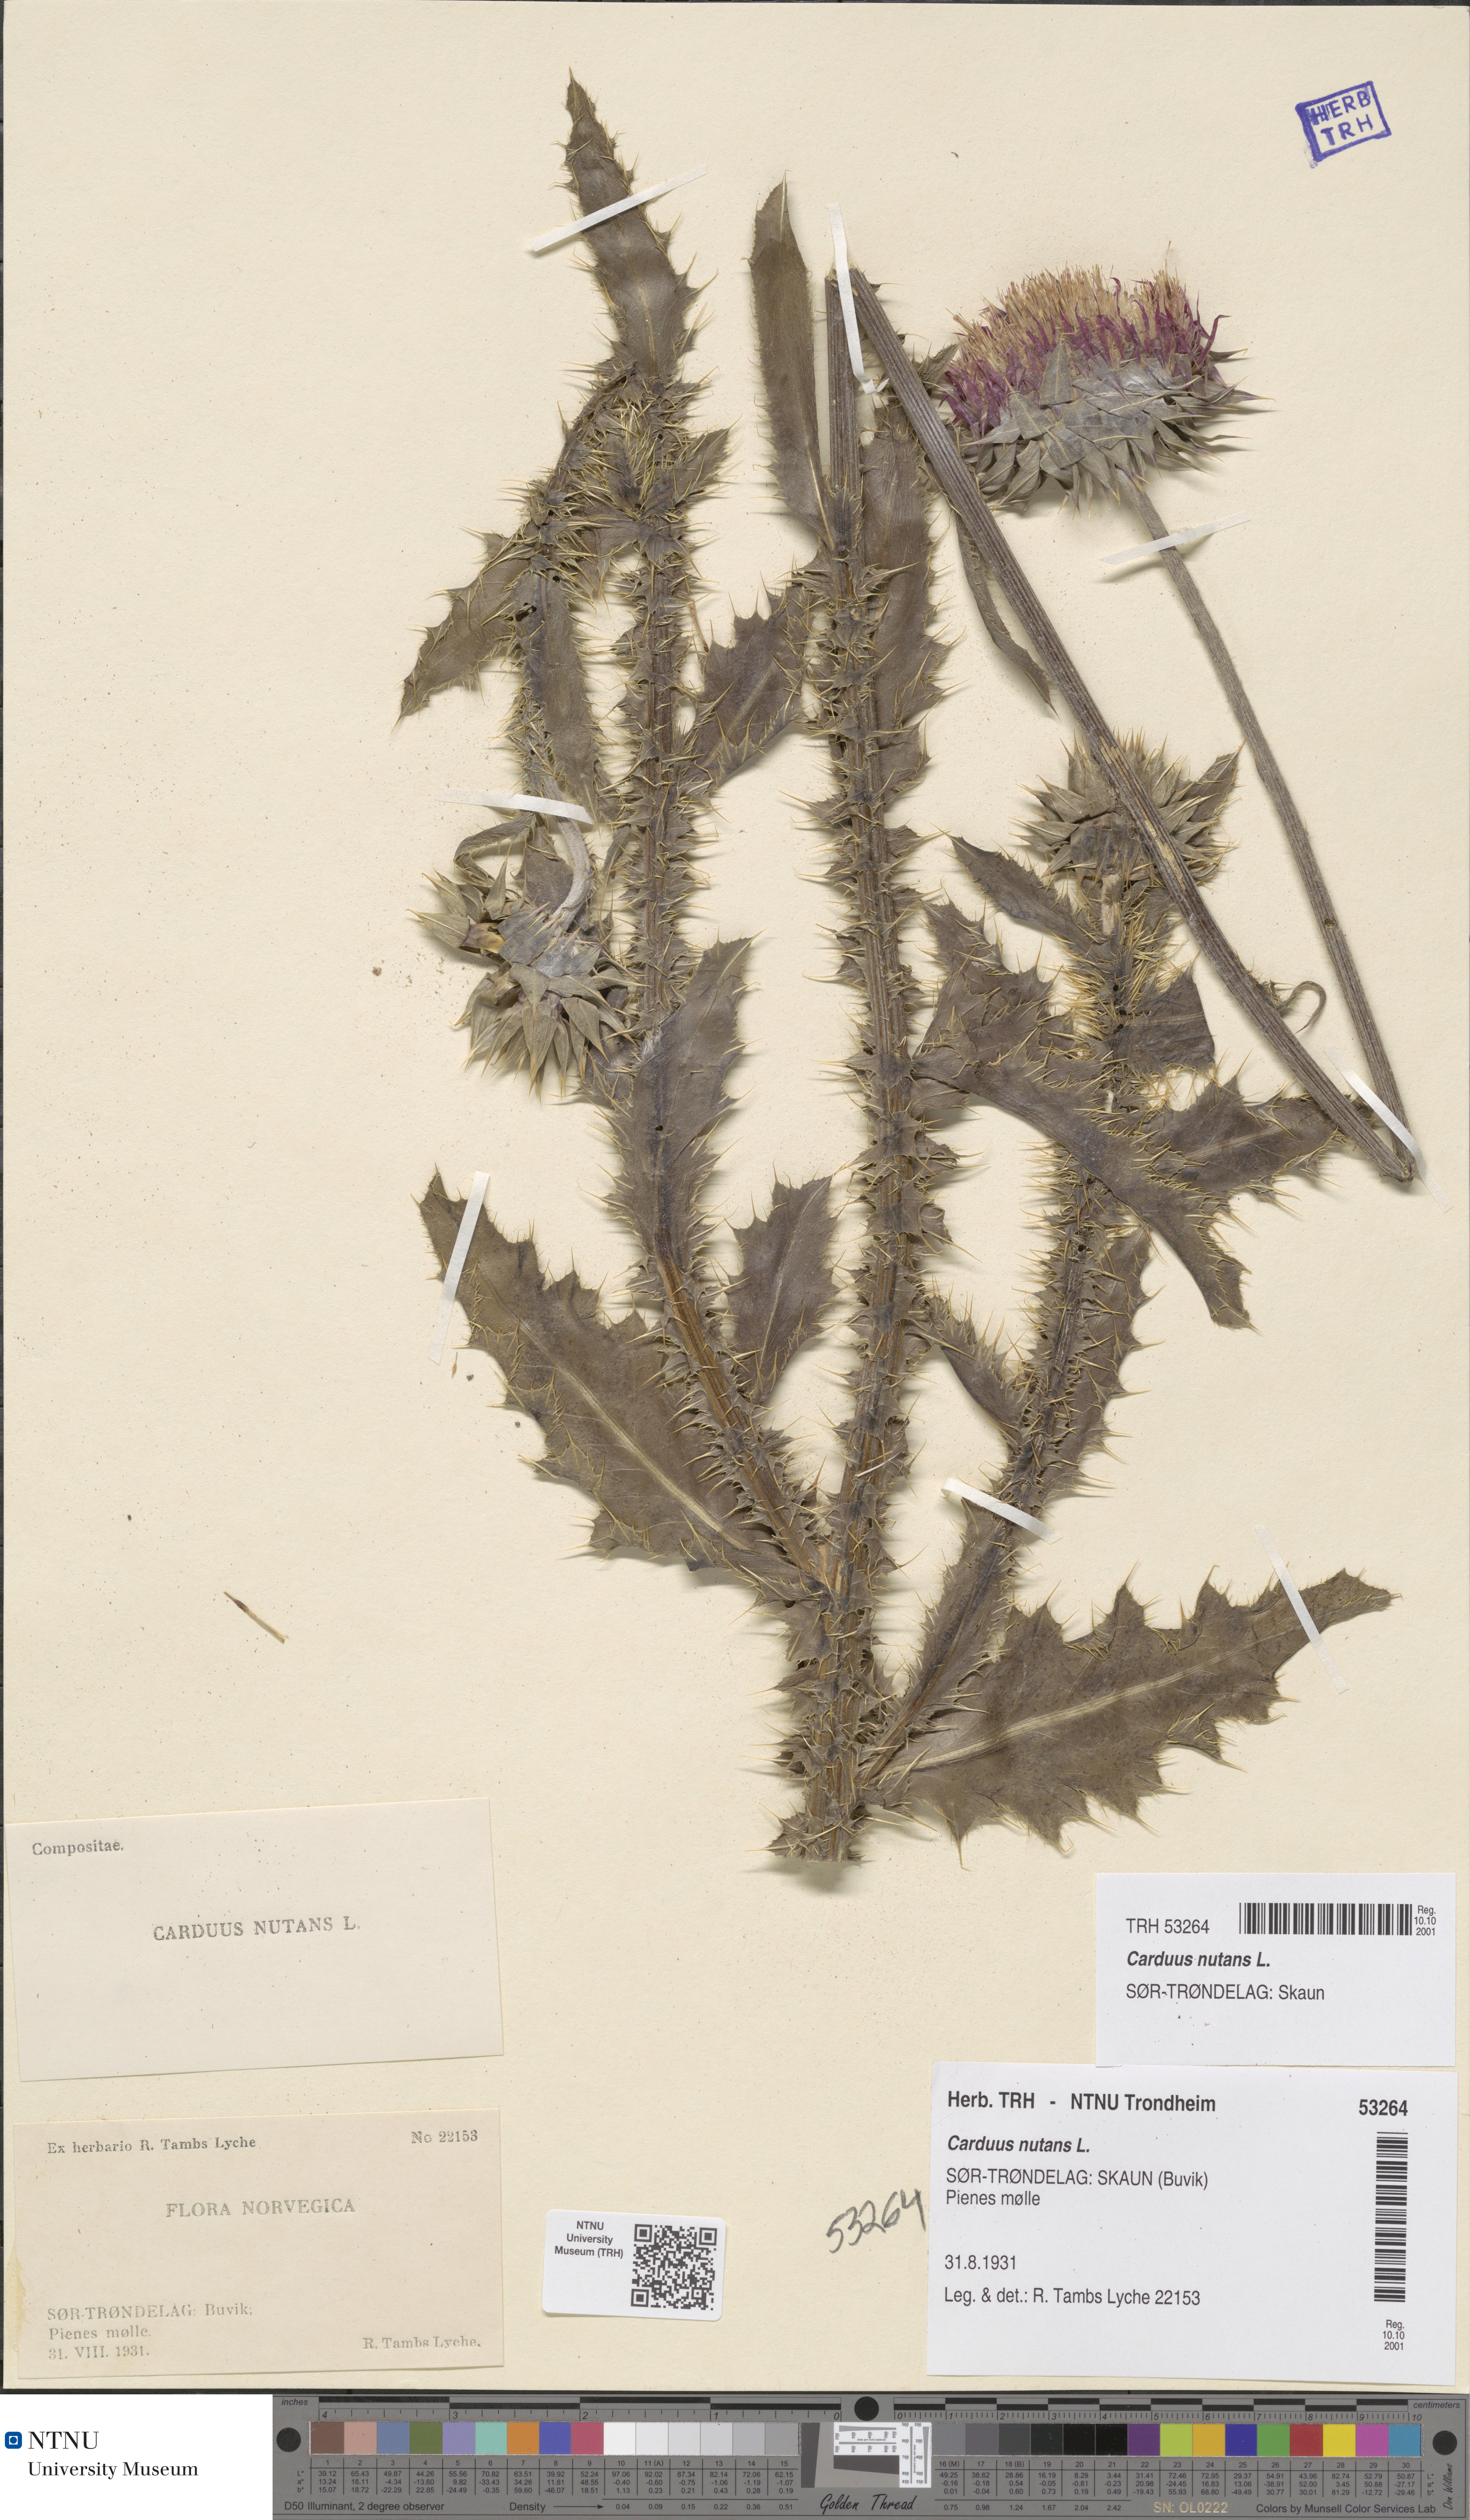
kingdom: Plantae
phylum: Tracheophyta
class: Magnoliopsida
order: Asterales
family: Asteraceae
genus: Carduus
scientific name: Carduus nutans
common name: Musk thistle
